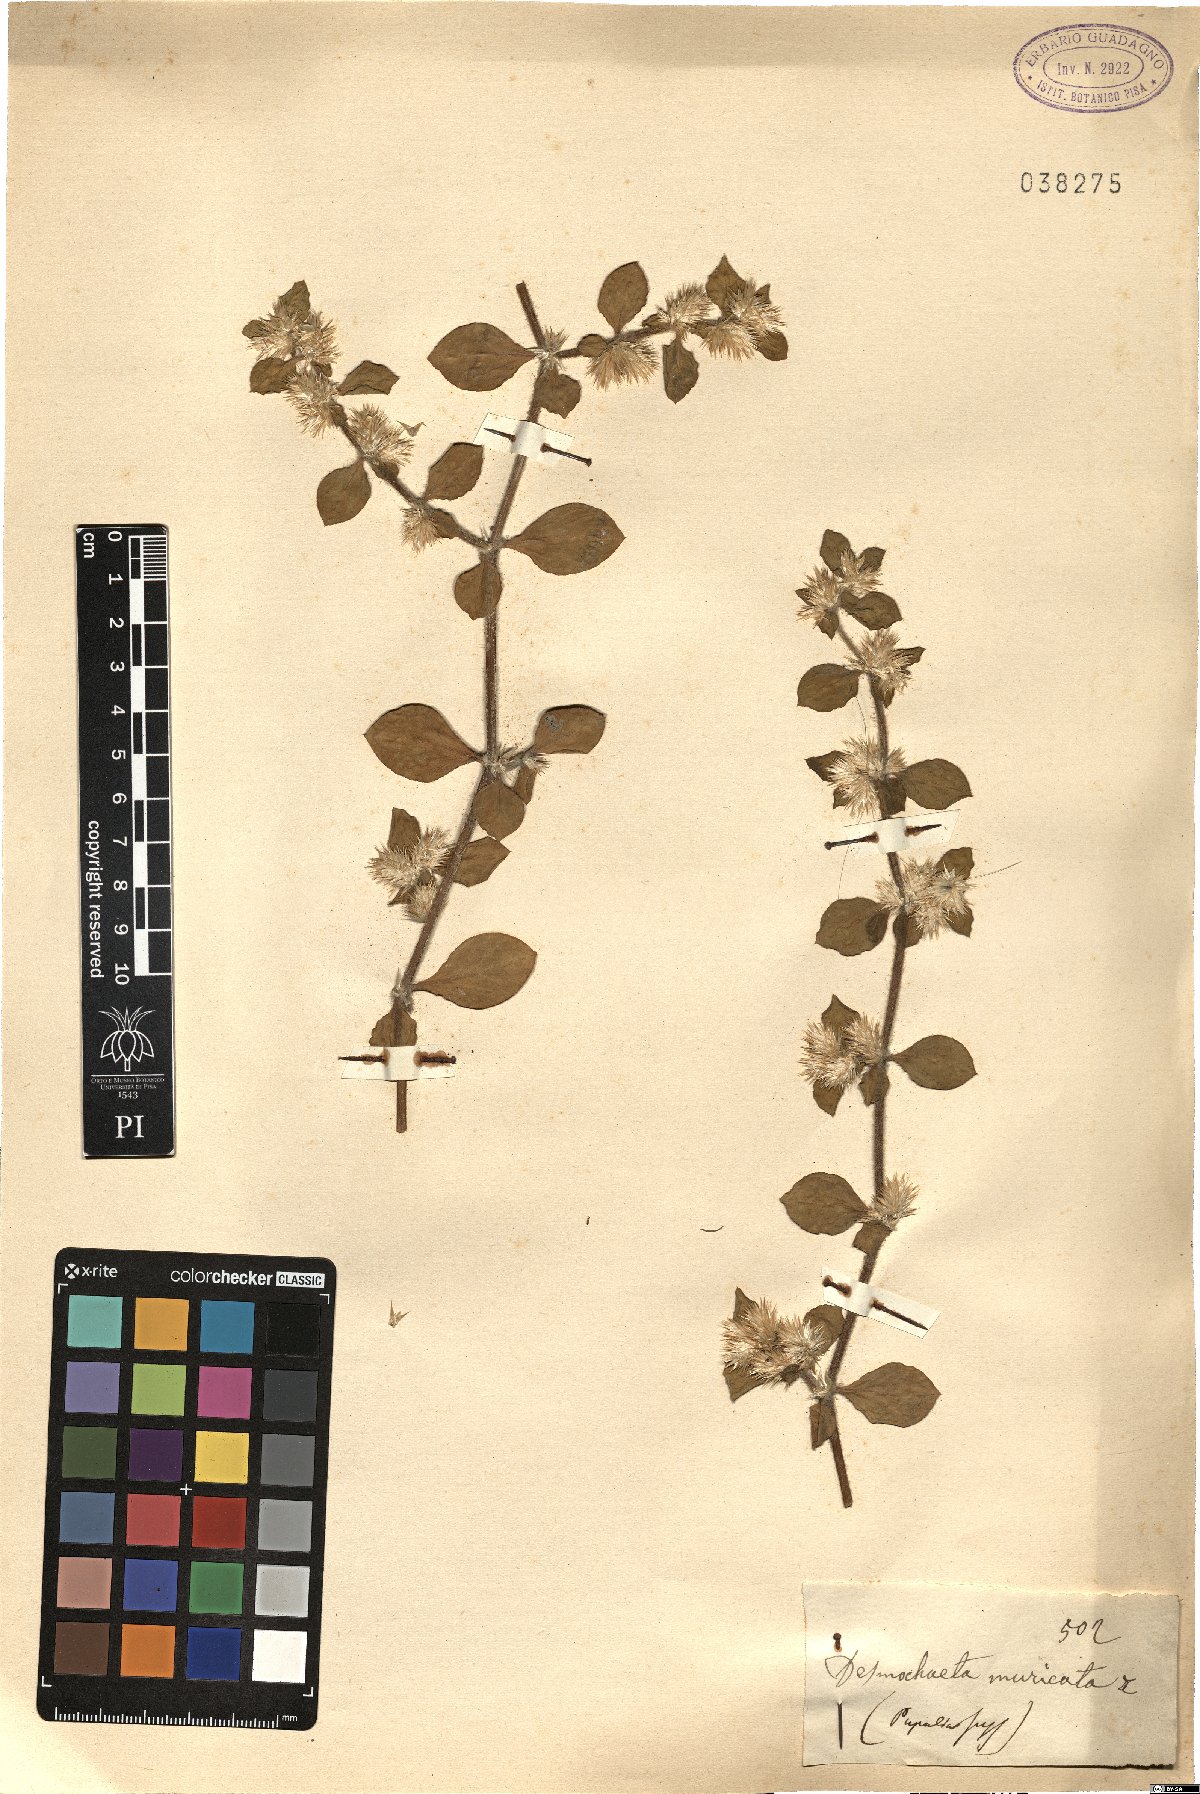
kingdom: Plantae
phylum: Tracheophyta
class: Magnoliopsida
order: Caryophyllales
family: Amaranthaceae
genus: Digera
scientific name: Digera muricata
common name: False amaranth
